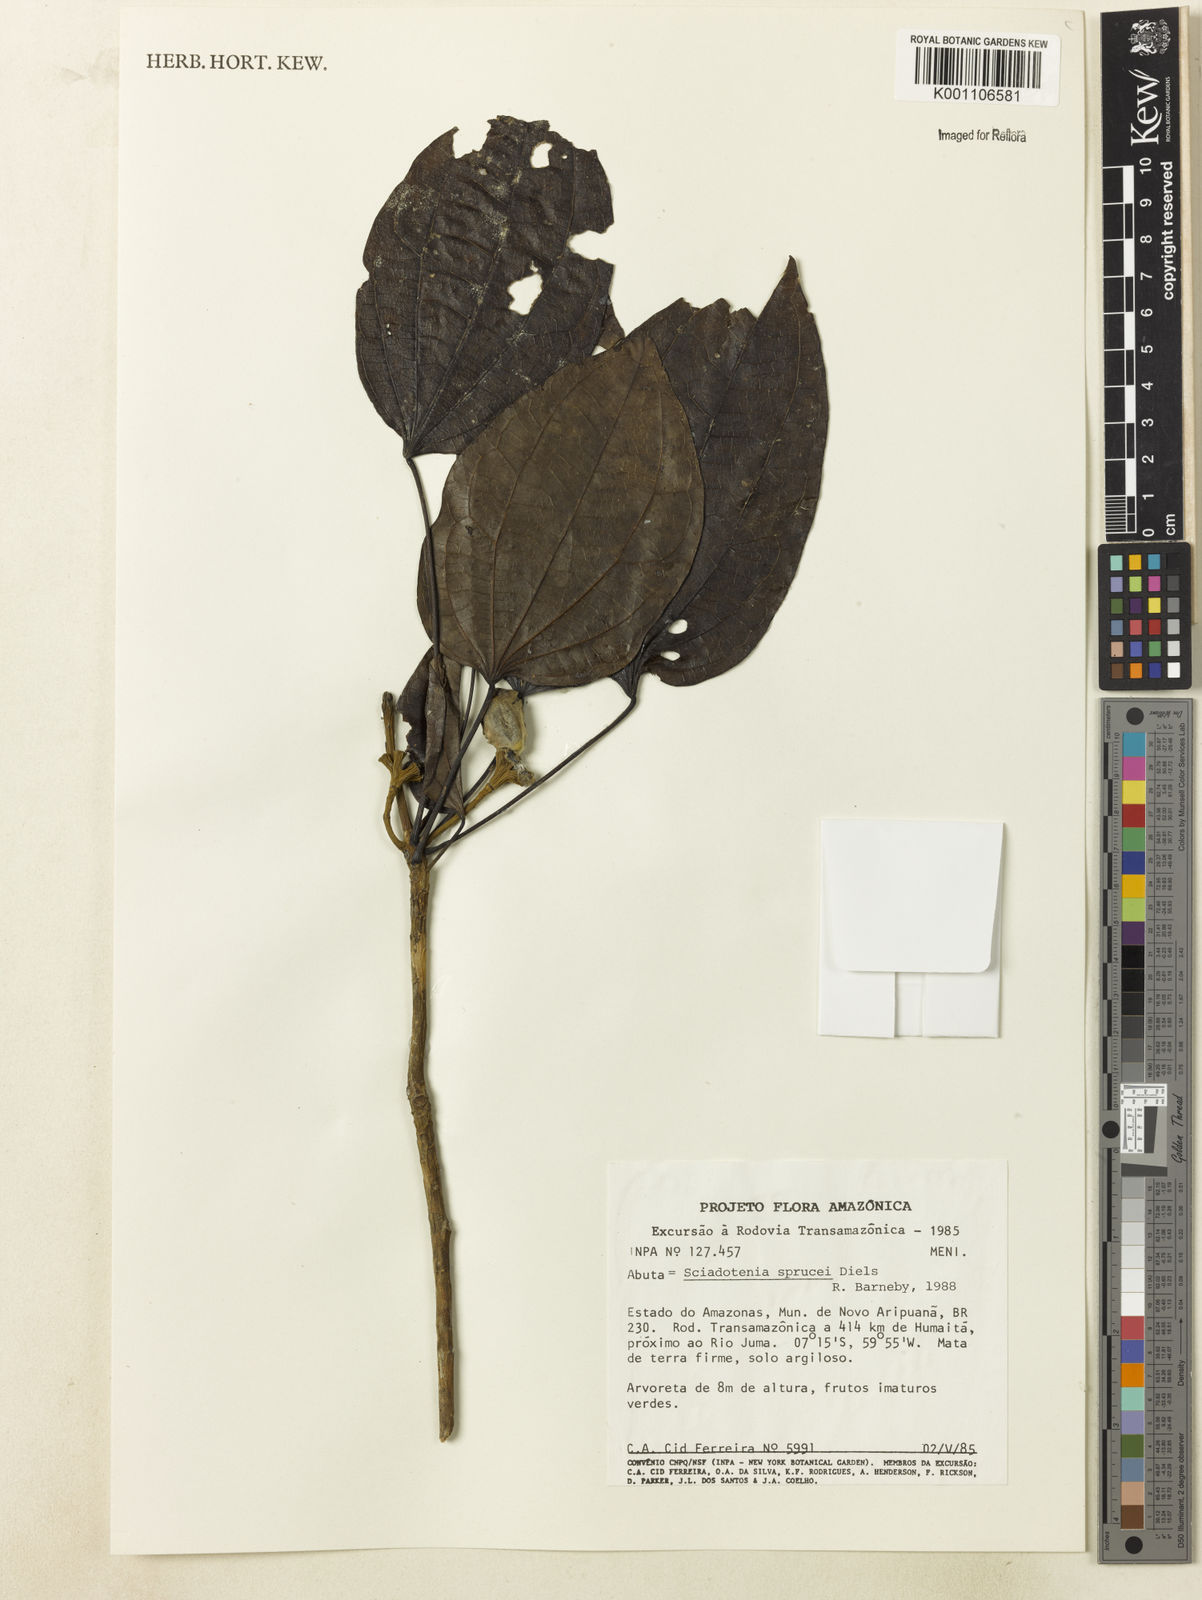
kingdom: Plantae
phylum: Tracheophyta
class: Magnoliopsida
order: Ranunculales
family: Menispermaceae
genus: Sciadotenia
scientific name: Sciadotenia
